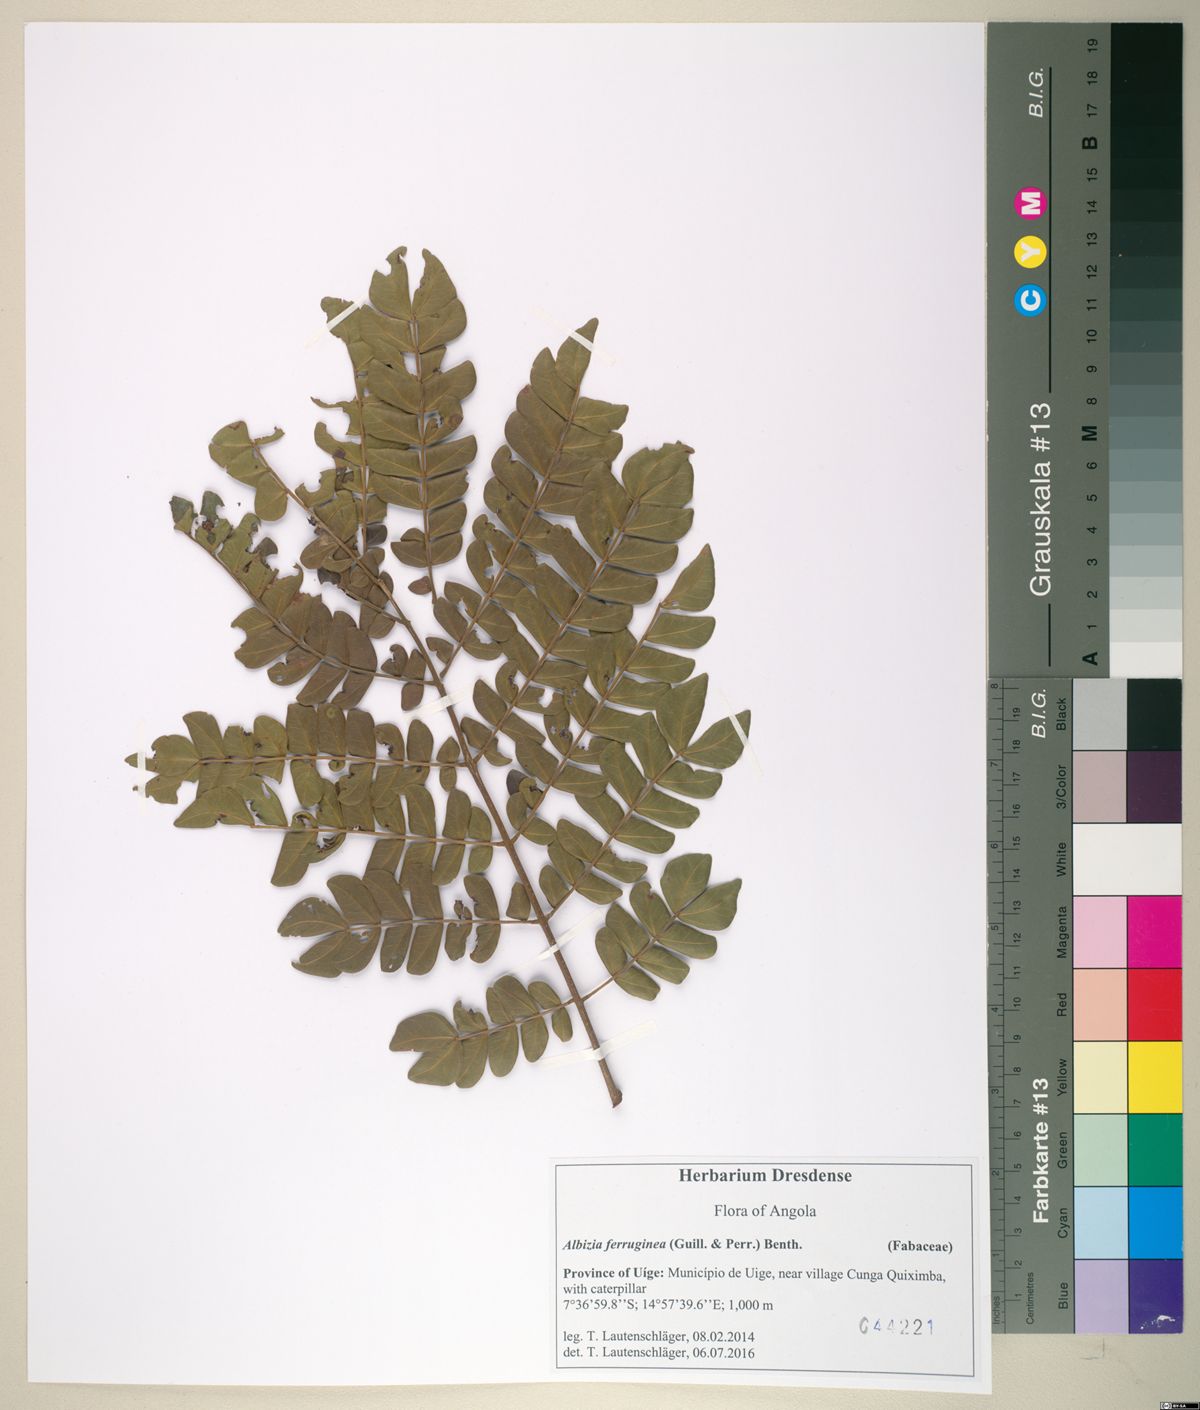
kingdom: Plantae
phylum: Tracheophyta
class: Magnoliopsida
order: Fabales
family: Fabaceae
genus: Albizia
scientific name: Albizia gummifera
